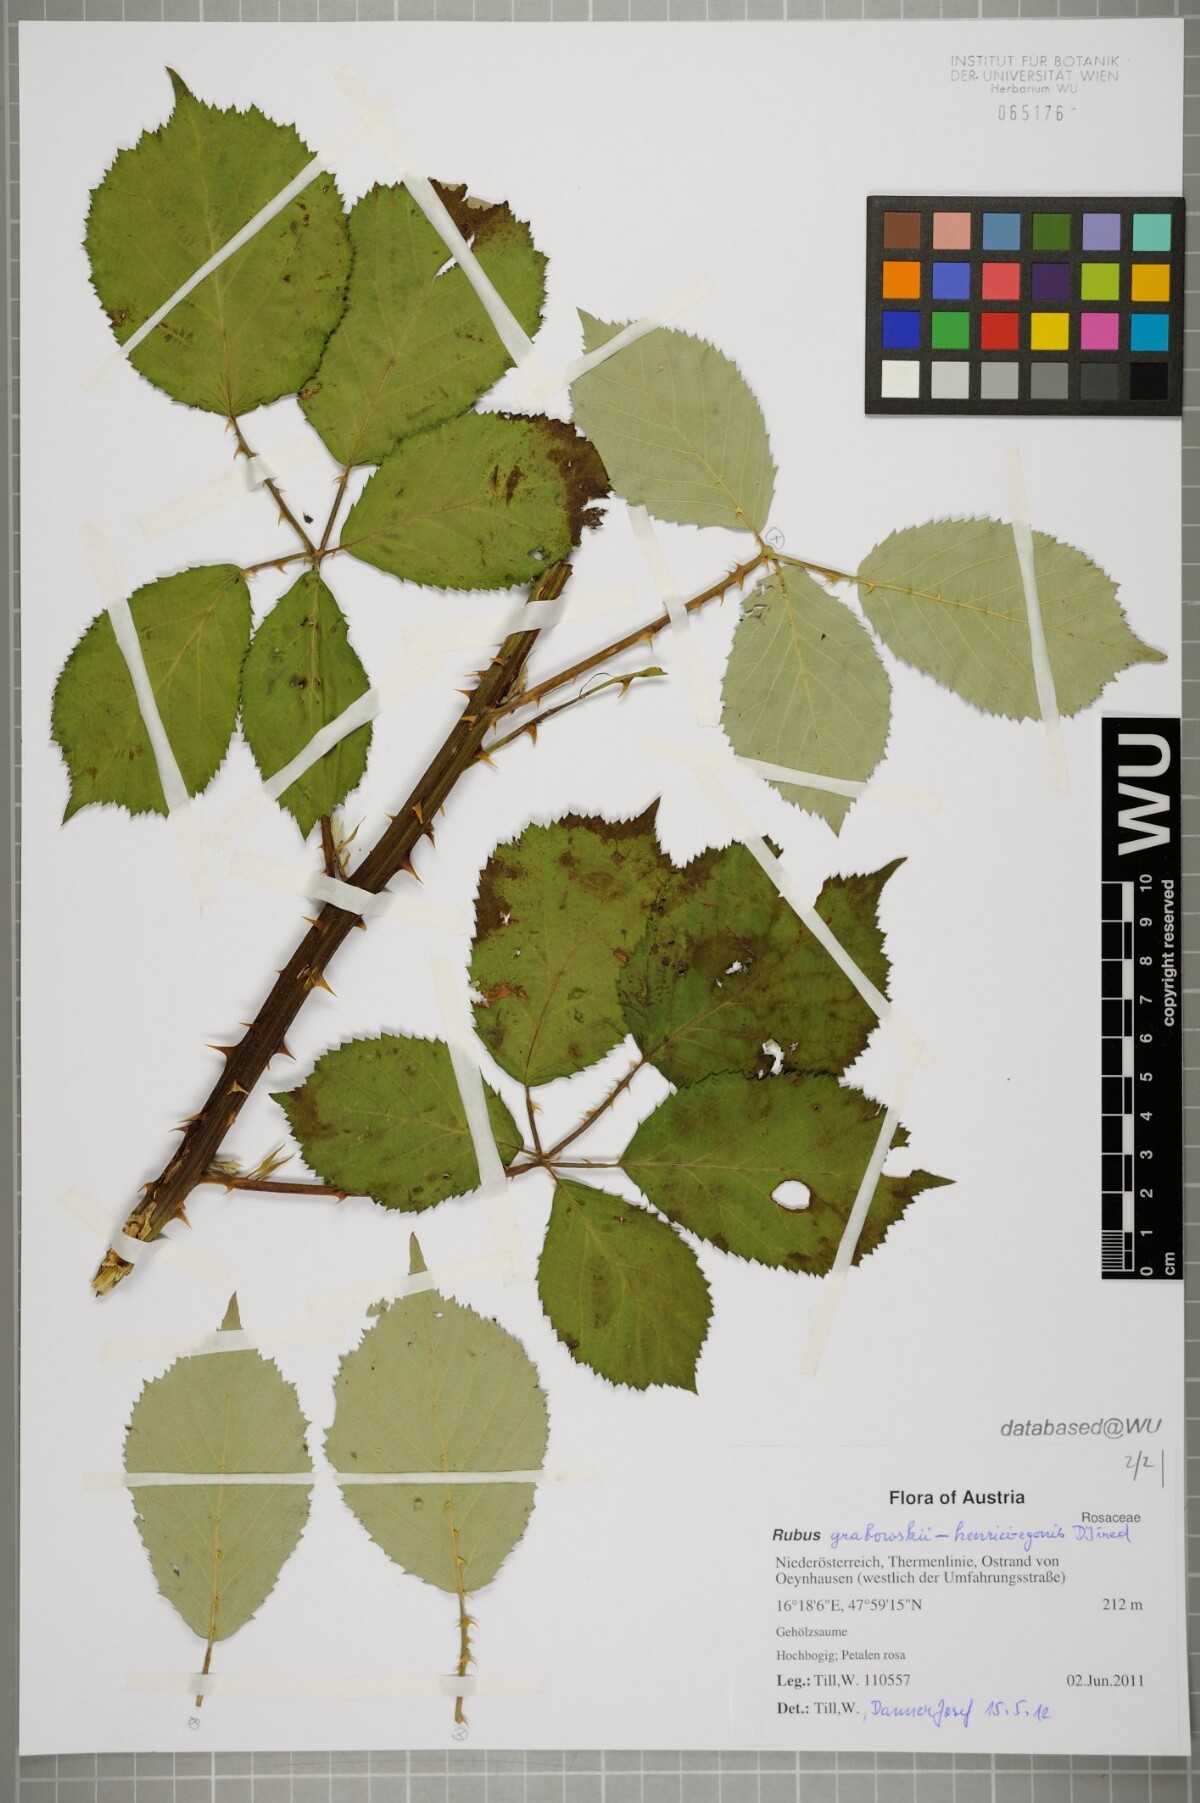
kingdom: Plantae
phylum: Tracheophyta
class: Magnoliopsida
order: Rosales
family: Rosaceae
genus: Rubus
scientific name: Rubus armeniacus
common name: Himalayan blackberry
